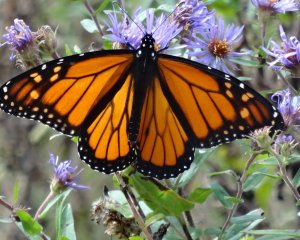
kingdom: Animalia
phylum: Arthropoda
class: Insecta
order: Lepidoptera
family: Nymphalidae
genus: Danaus
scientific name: Danaus plexippus
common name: Monarch
